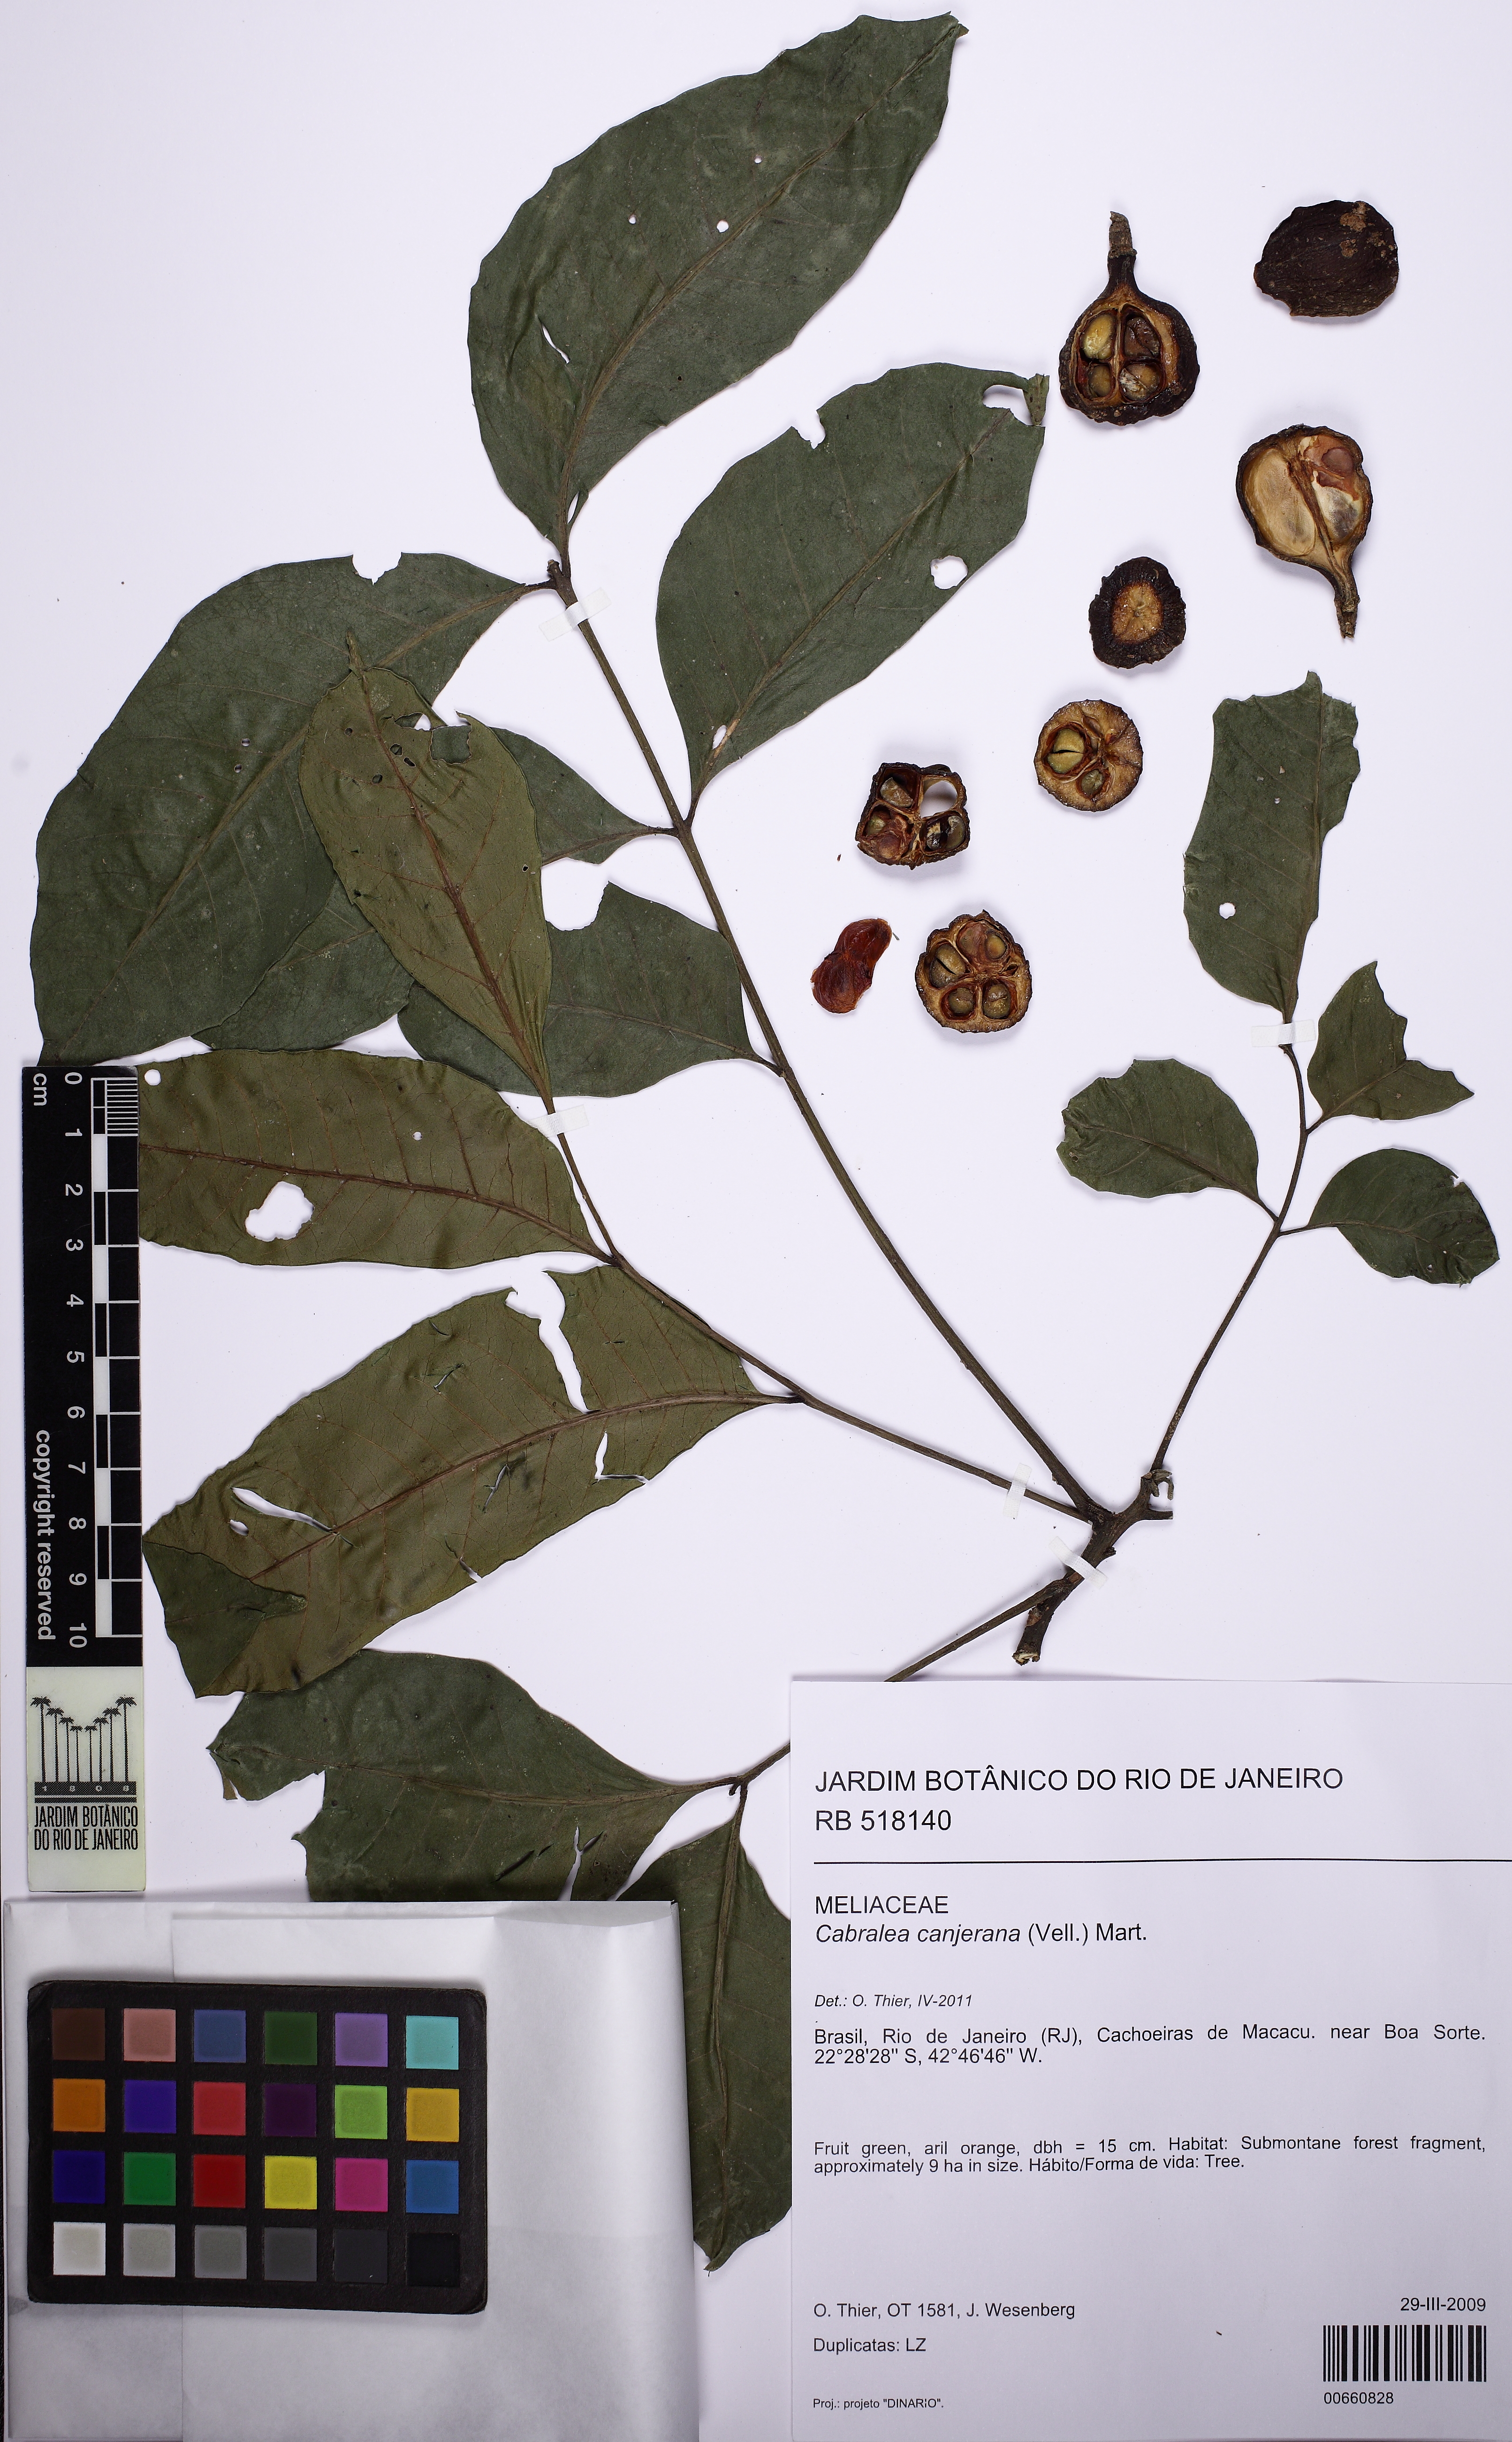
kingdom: Plantae
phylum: Tracheophyta
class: Magnoliopsida
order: Sapindales
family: Meliaceae
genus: Cabralea
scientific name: Cabralea canjerana
